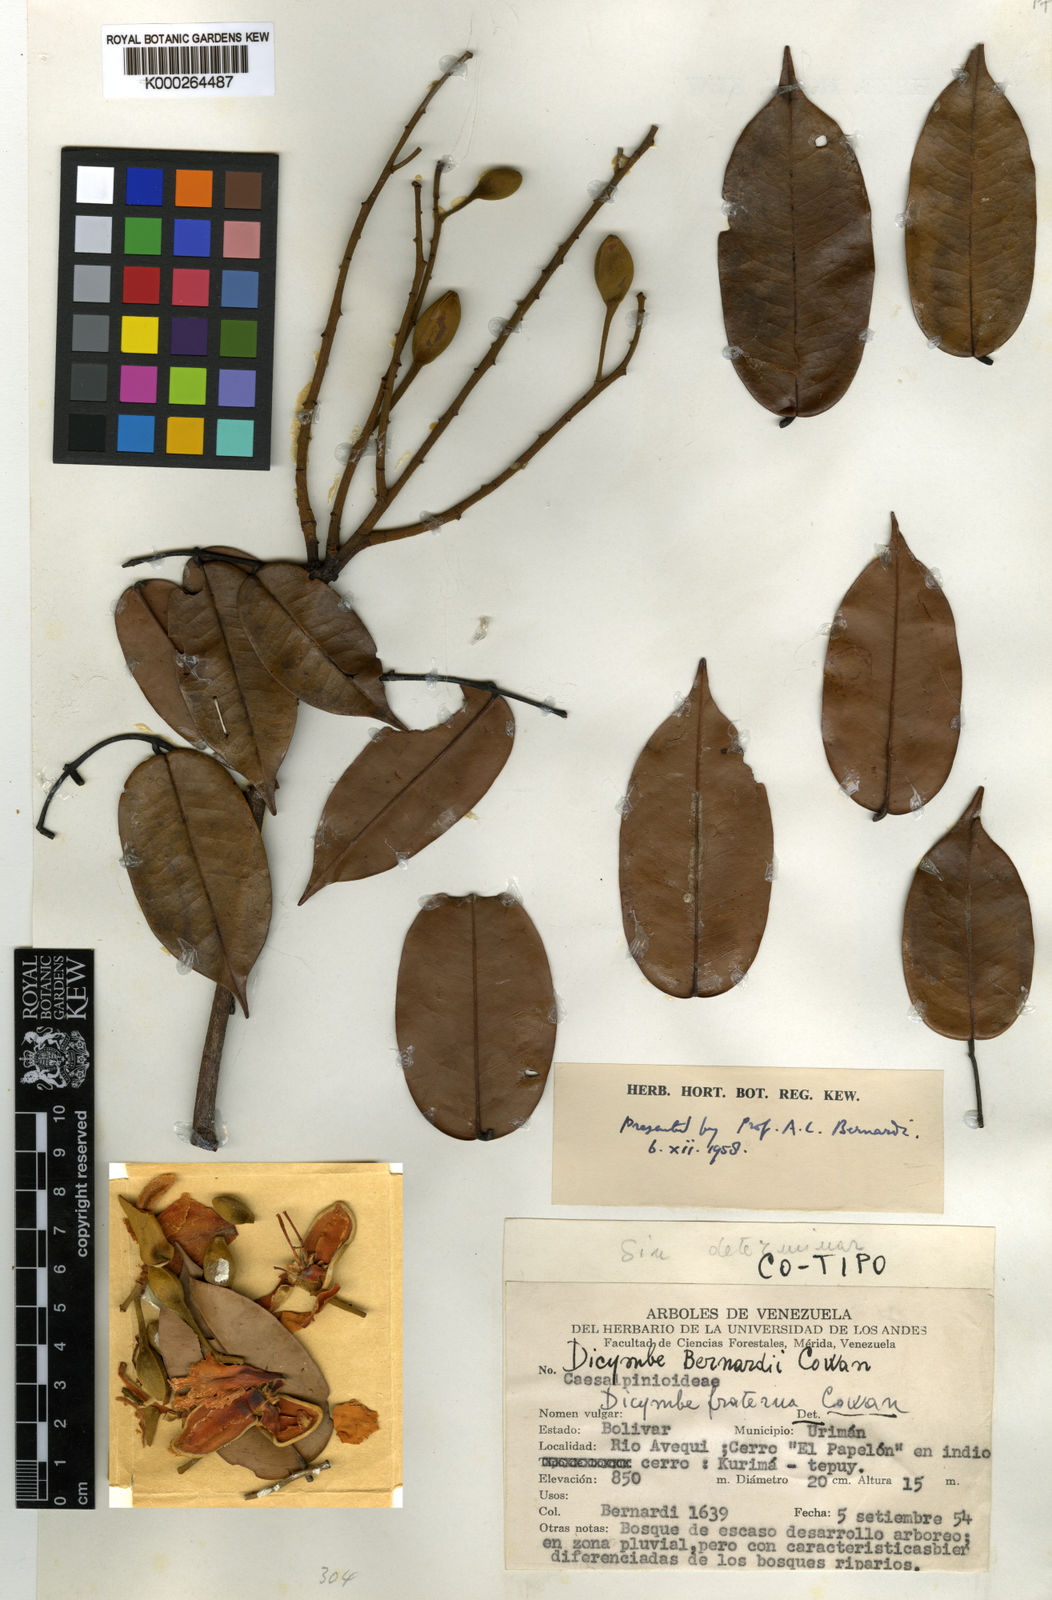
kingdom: Plantae
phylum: Tracheophyta
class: Magnoliopsida
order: Fabales
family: Fabaceae
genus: Dicymbe
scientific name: Dicymbe bernardii
